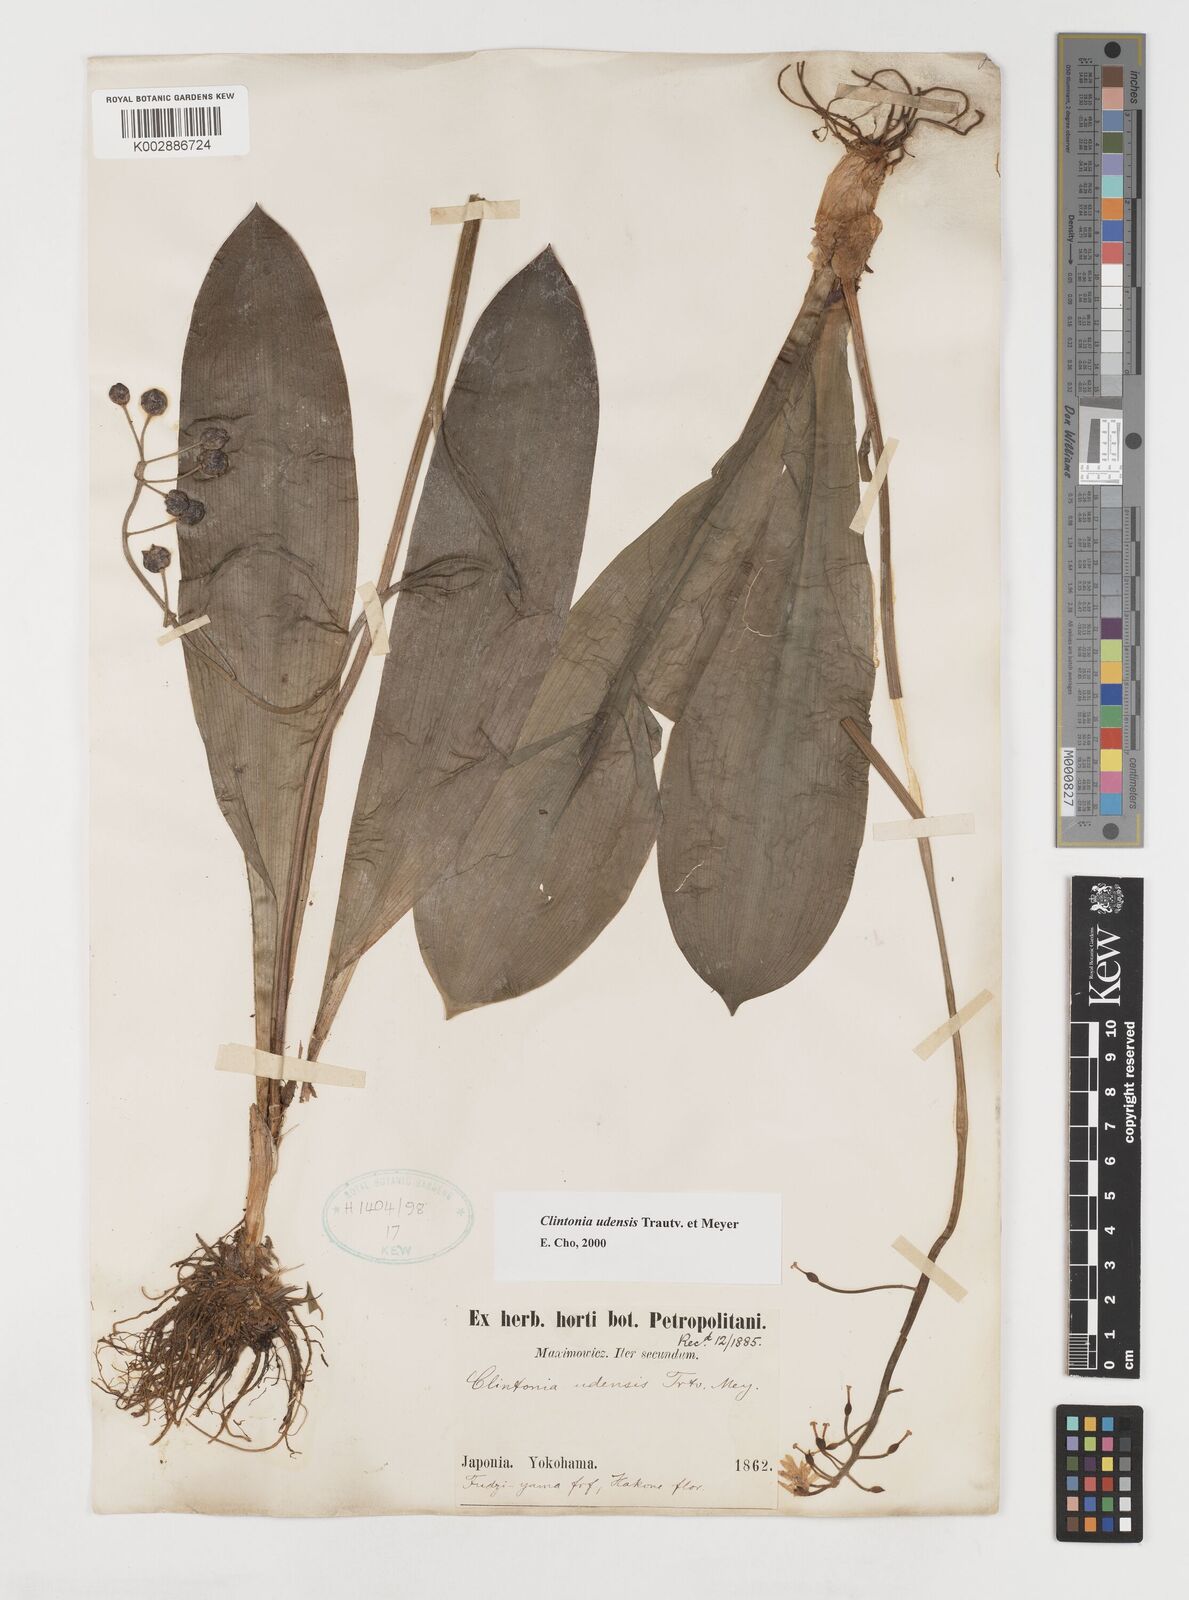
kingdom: Plantae
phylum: Tracheophyta
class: Liliopsida
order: Liliales
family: Liliaceae
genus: Clintonia
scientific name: Clintonia udensis
